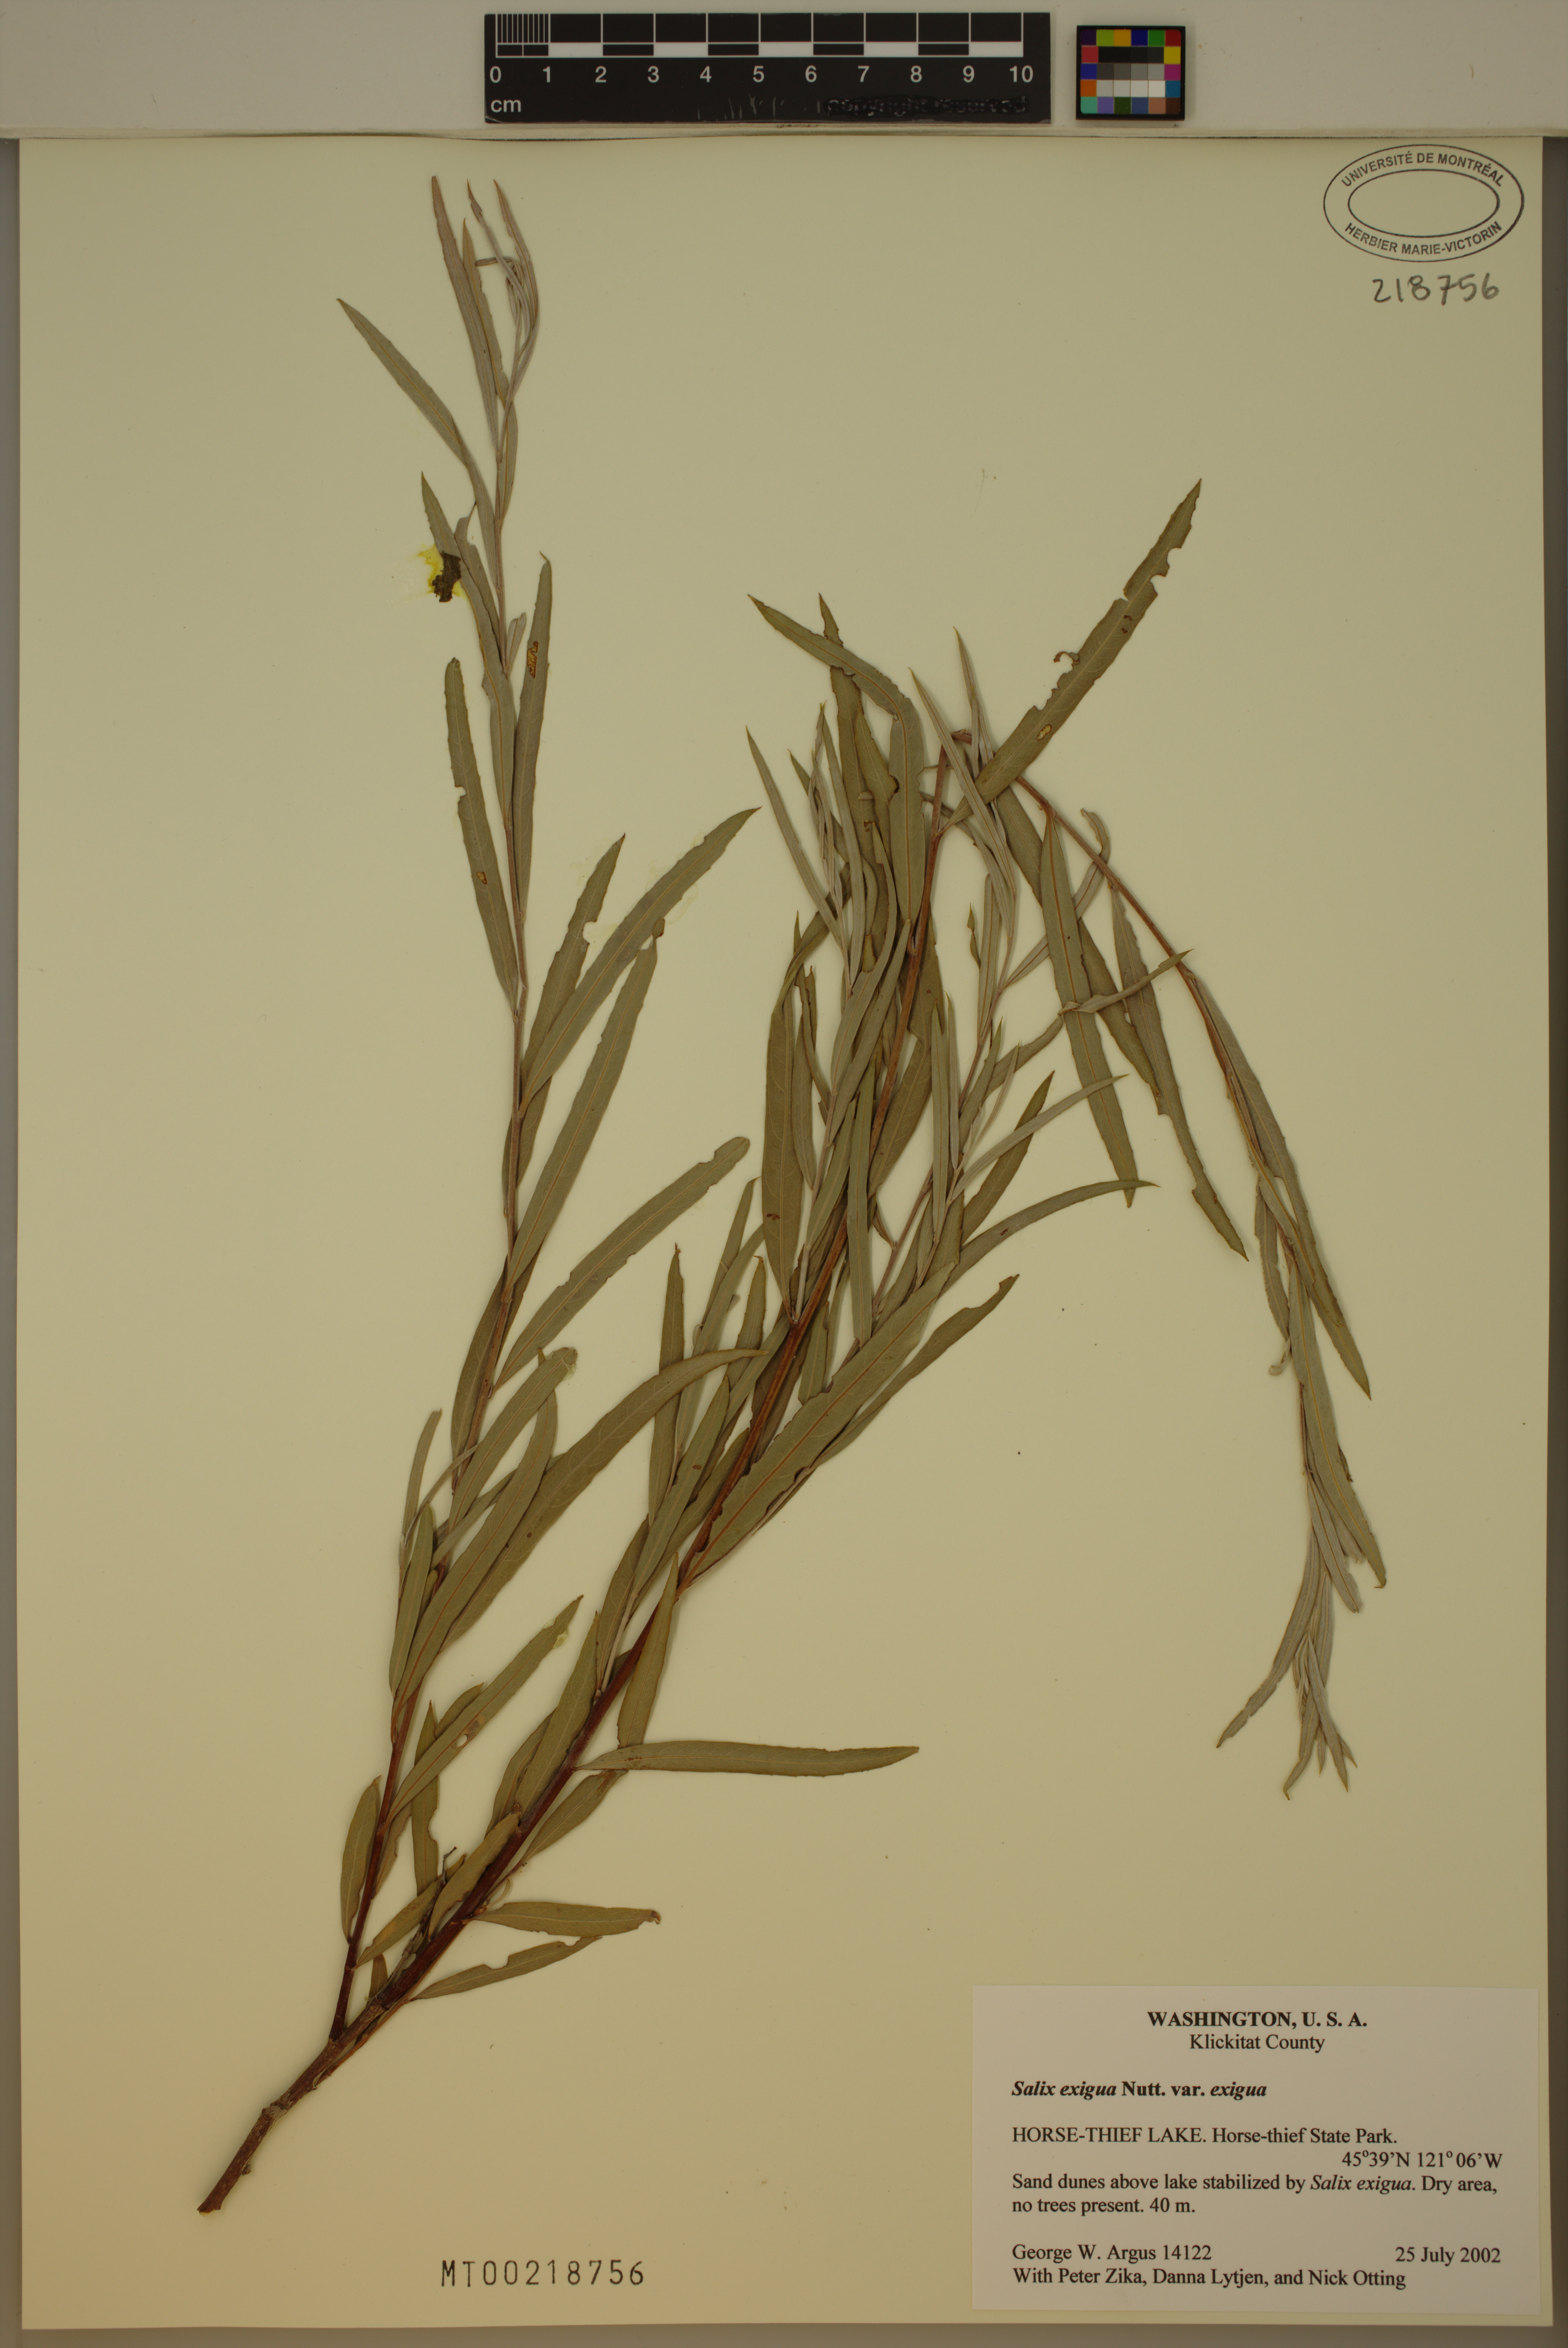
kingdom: Plantae
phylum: Tracheophyta
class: Magnoliopsida
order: Malpighiales
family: Salicaceae
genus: Salix
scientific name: Salix exigua
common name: Coyote willow
